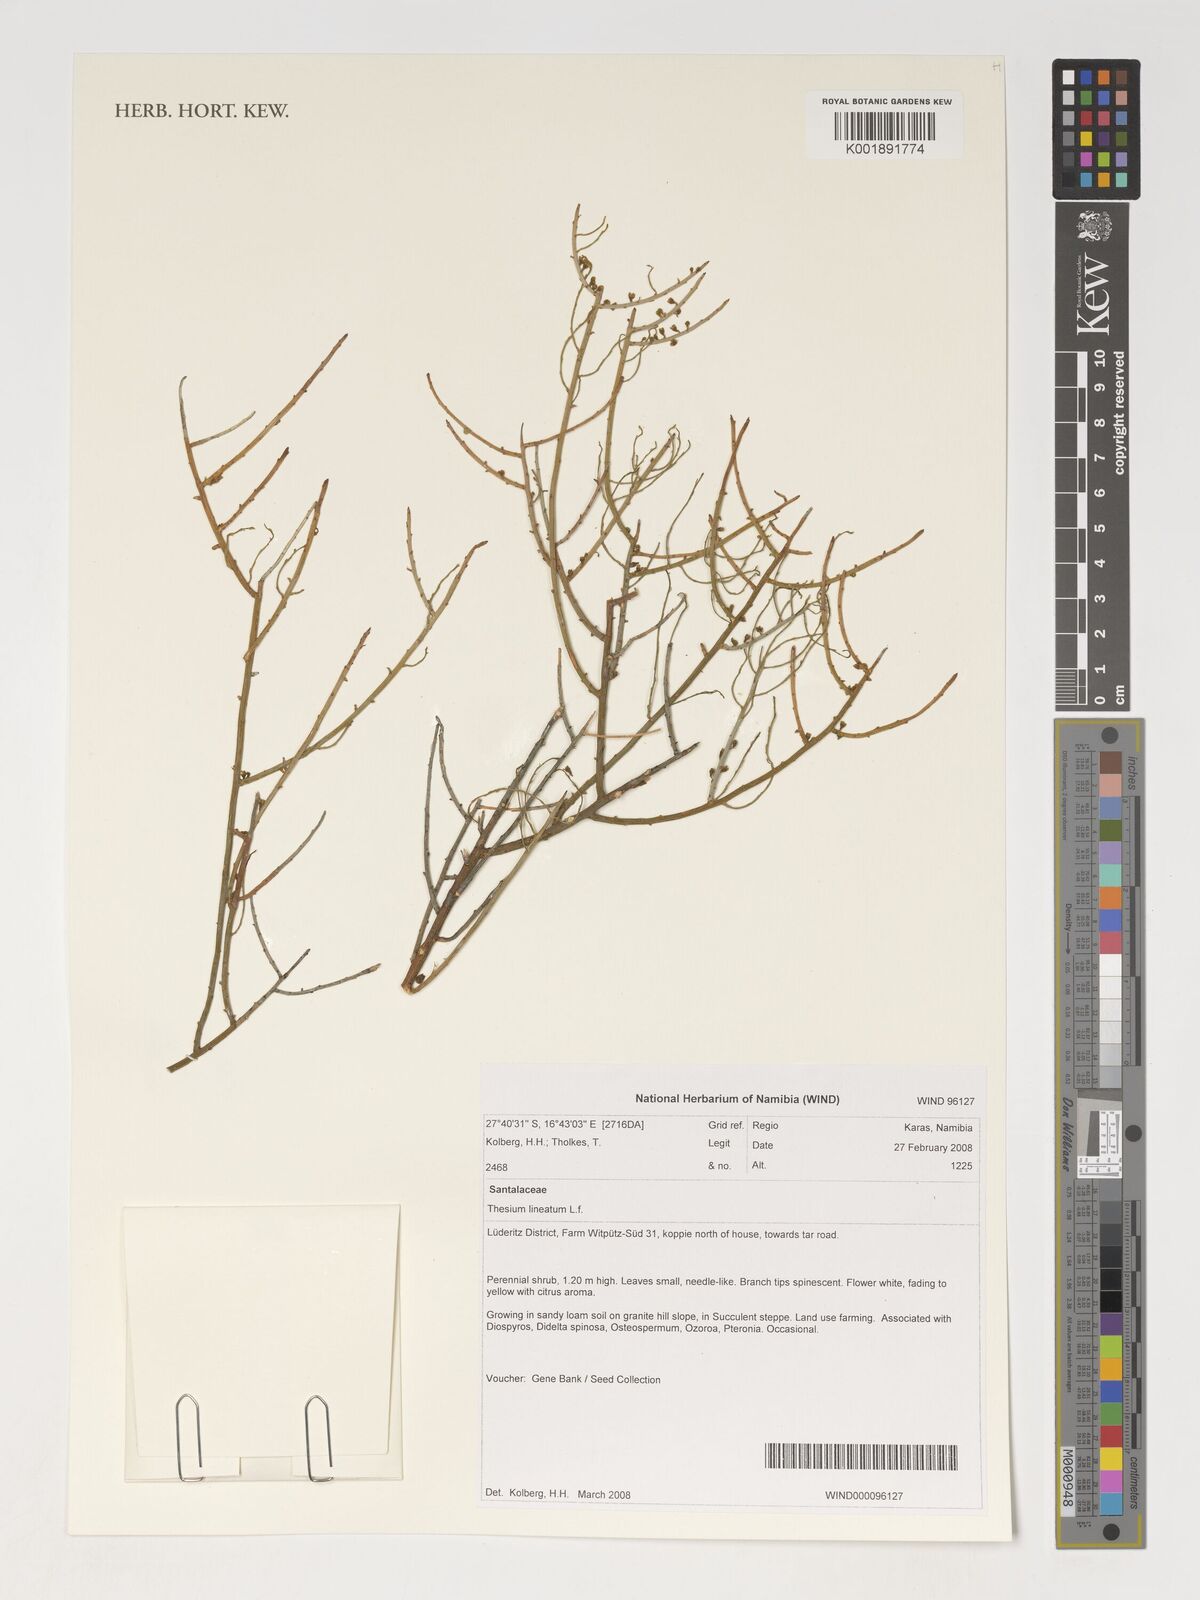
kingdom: Plantae
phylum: Tracheophyta
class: Magnoliopsida
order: Santalales
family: Thesiaceae
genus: Lacomucinaea
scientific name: Lacomucinaea lineata
